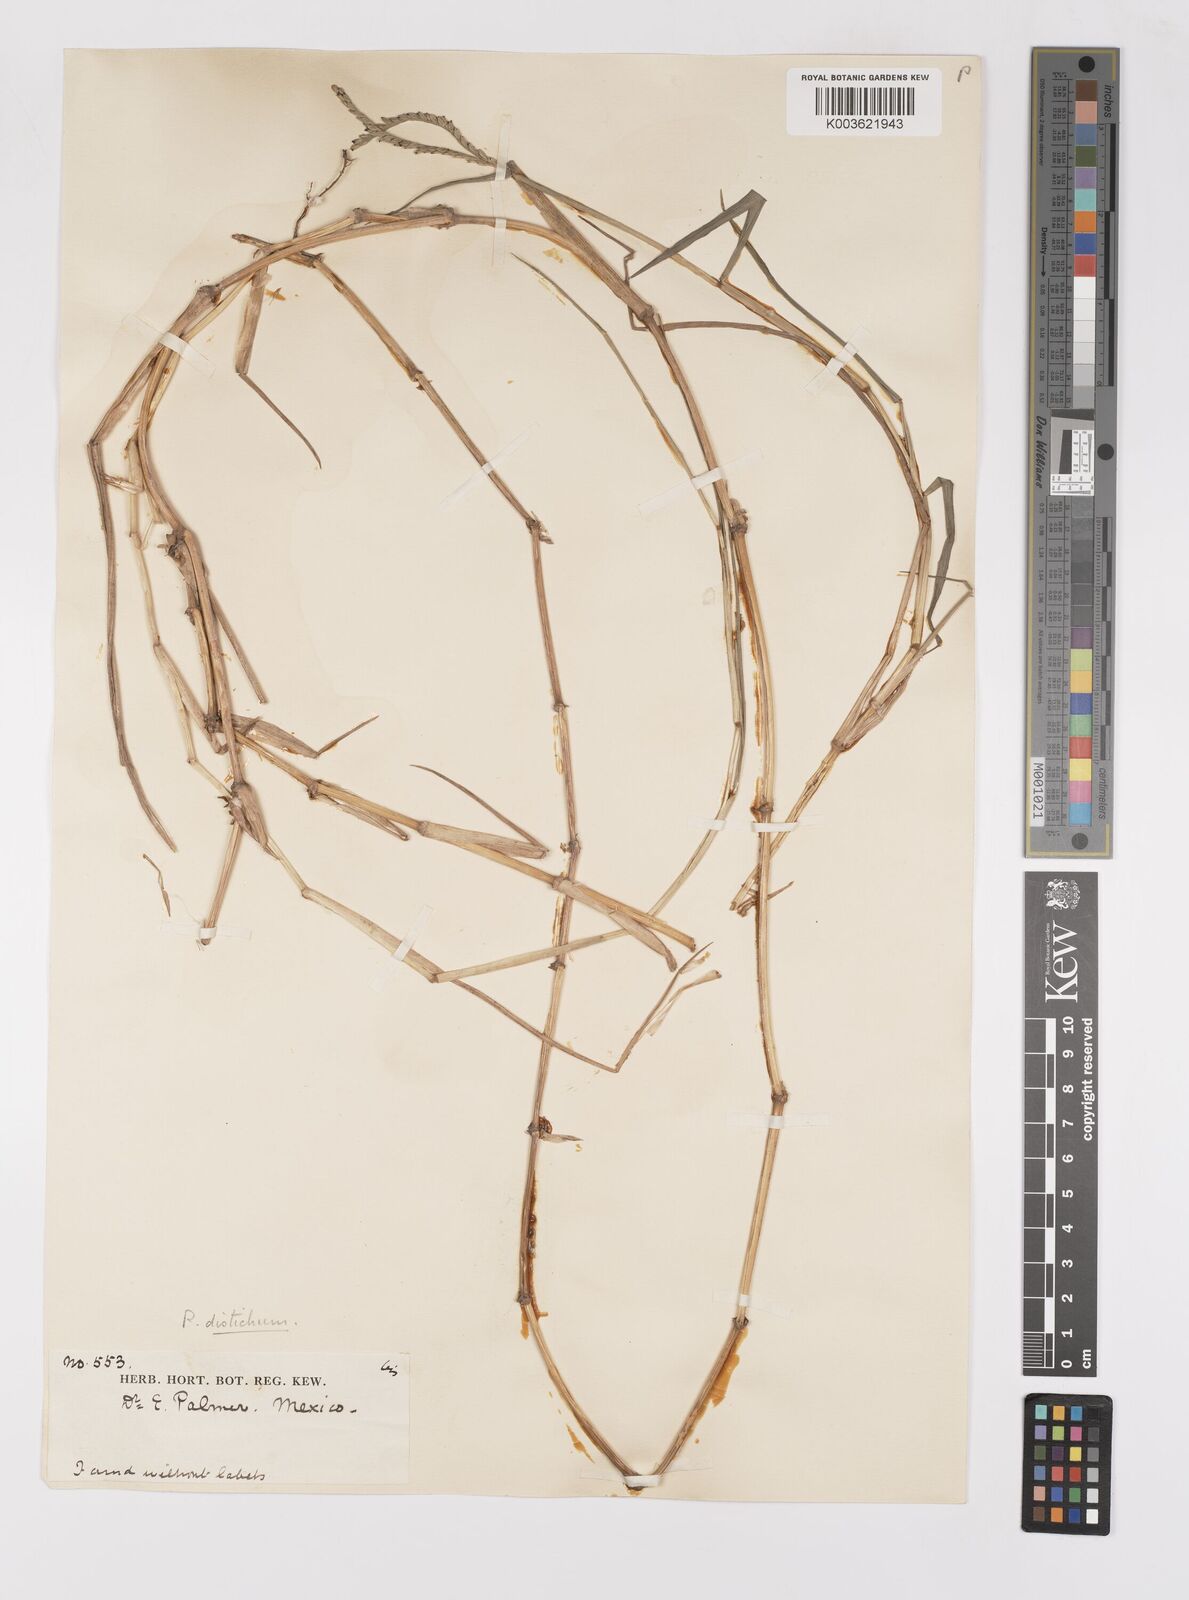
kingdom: Plantae
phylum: Tracheophyta
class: Liliopsida
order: Poales
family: Poaceae
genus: Paspalum
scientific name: Paspalum distichum
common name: Knotgrass
